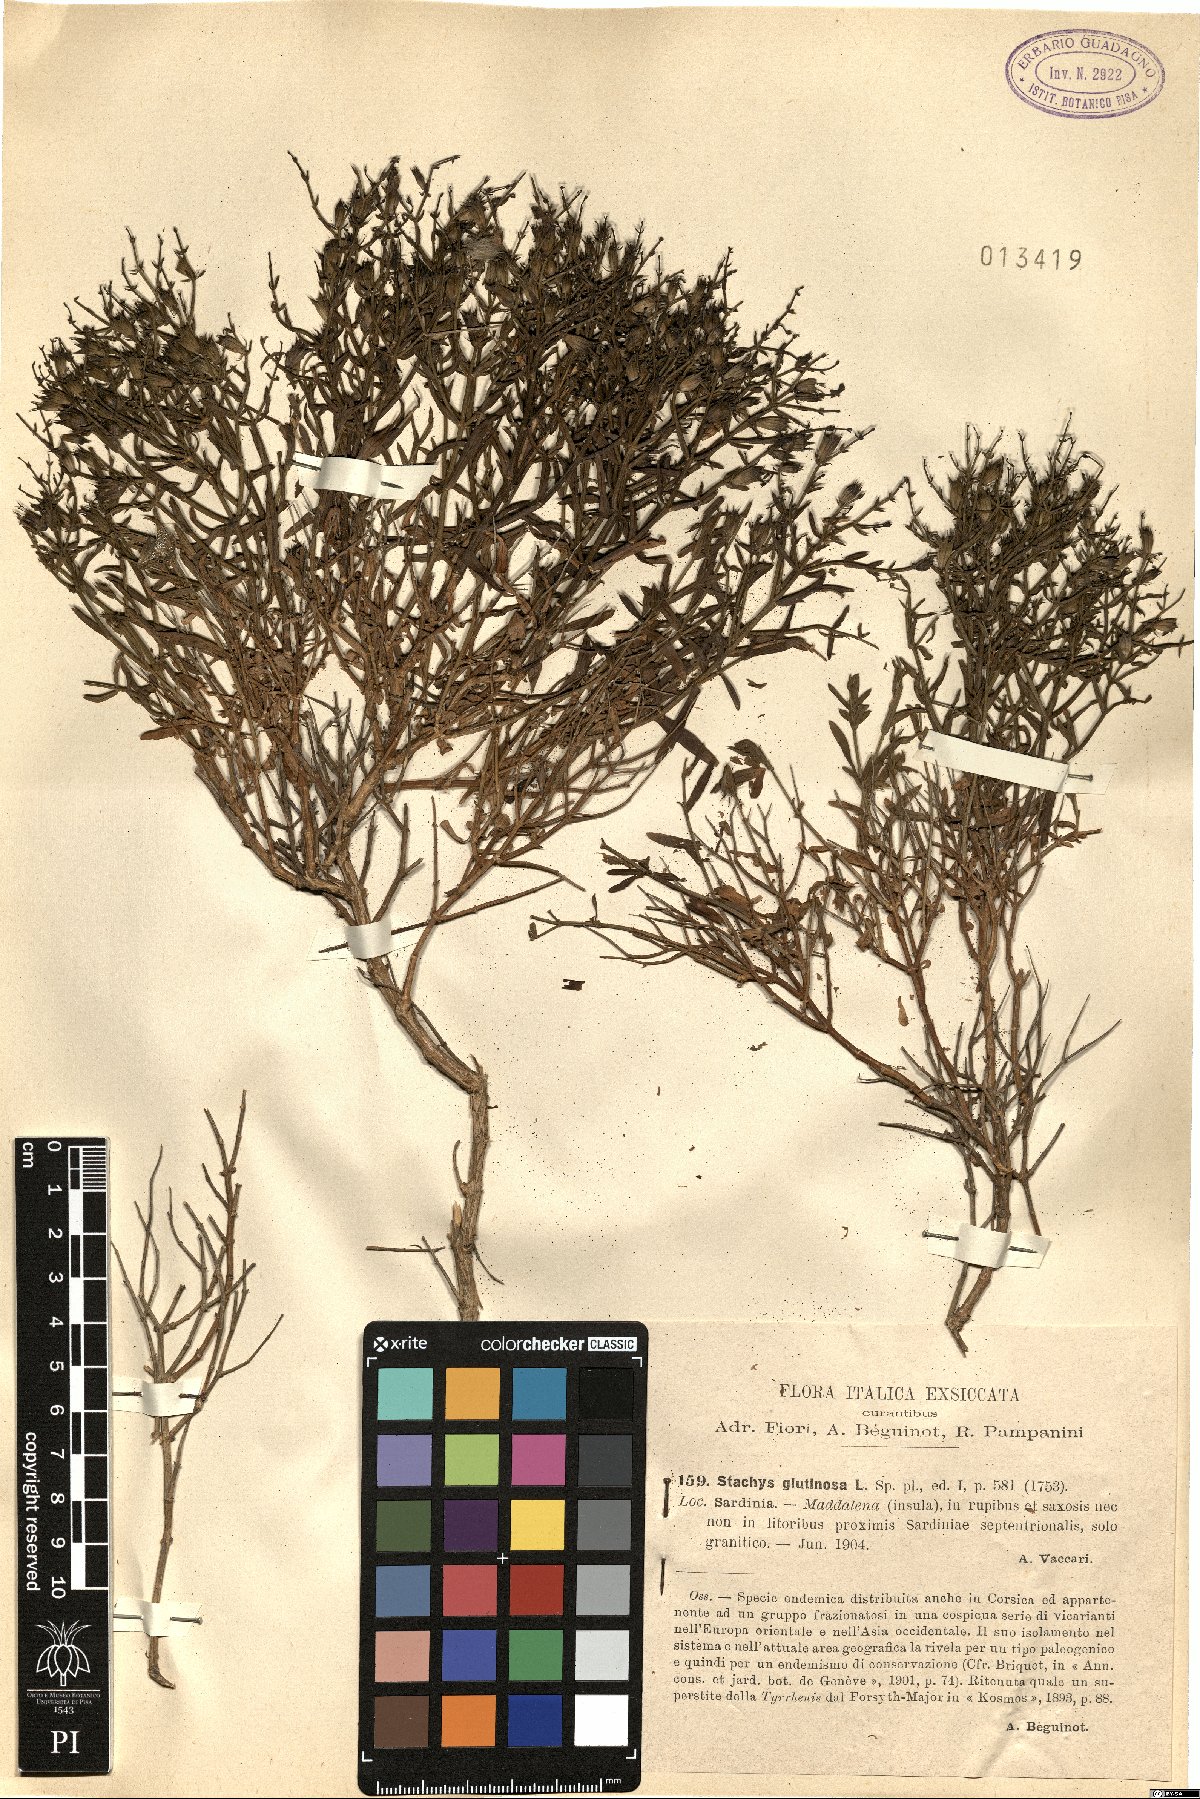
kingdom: Plantae
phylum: Tracheophyta
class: Magnoliopsida
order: Lamiales
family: Lamiaceae
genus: Stachys
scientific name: Stachys glutinosa
